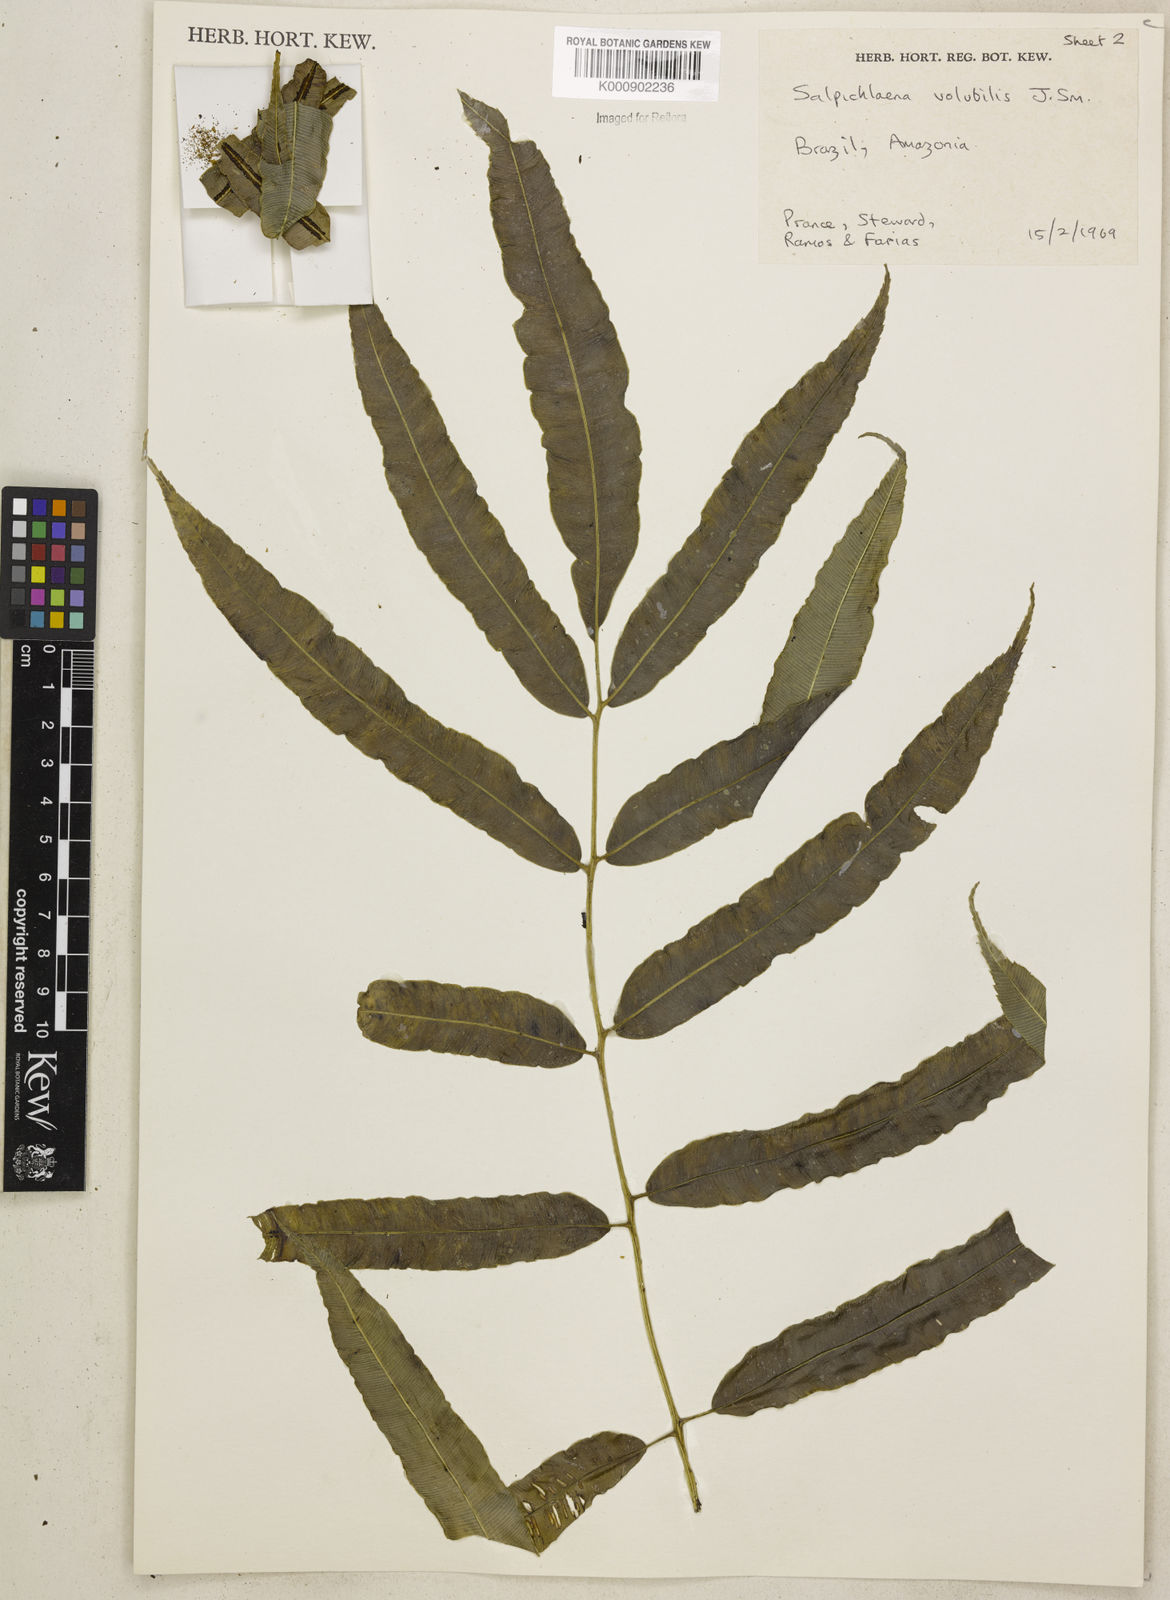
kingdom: Plantae
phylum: Tracheophyta
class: Polypodiopsida
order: Polypodiales
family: Blechnaceae
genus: Salpichlaena
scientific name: Salpichlaena volubilis
